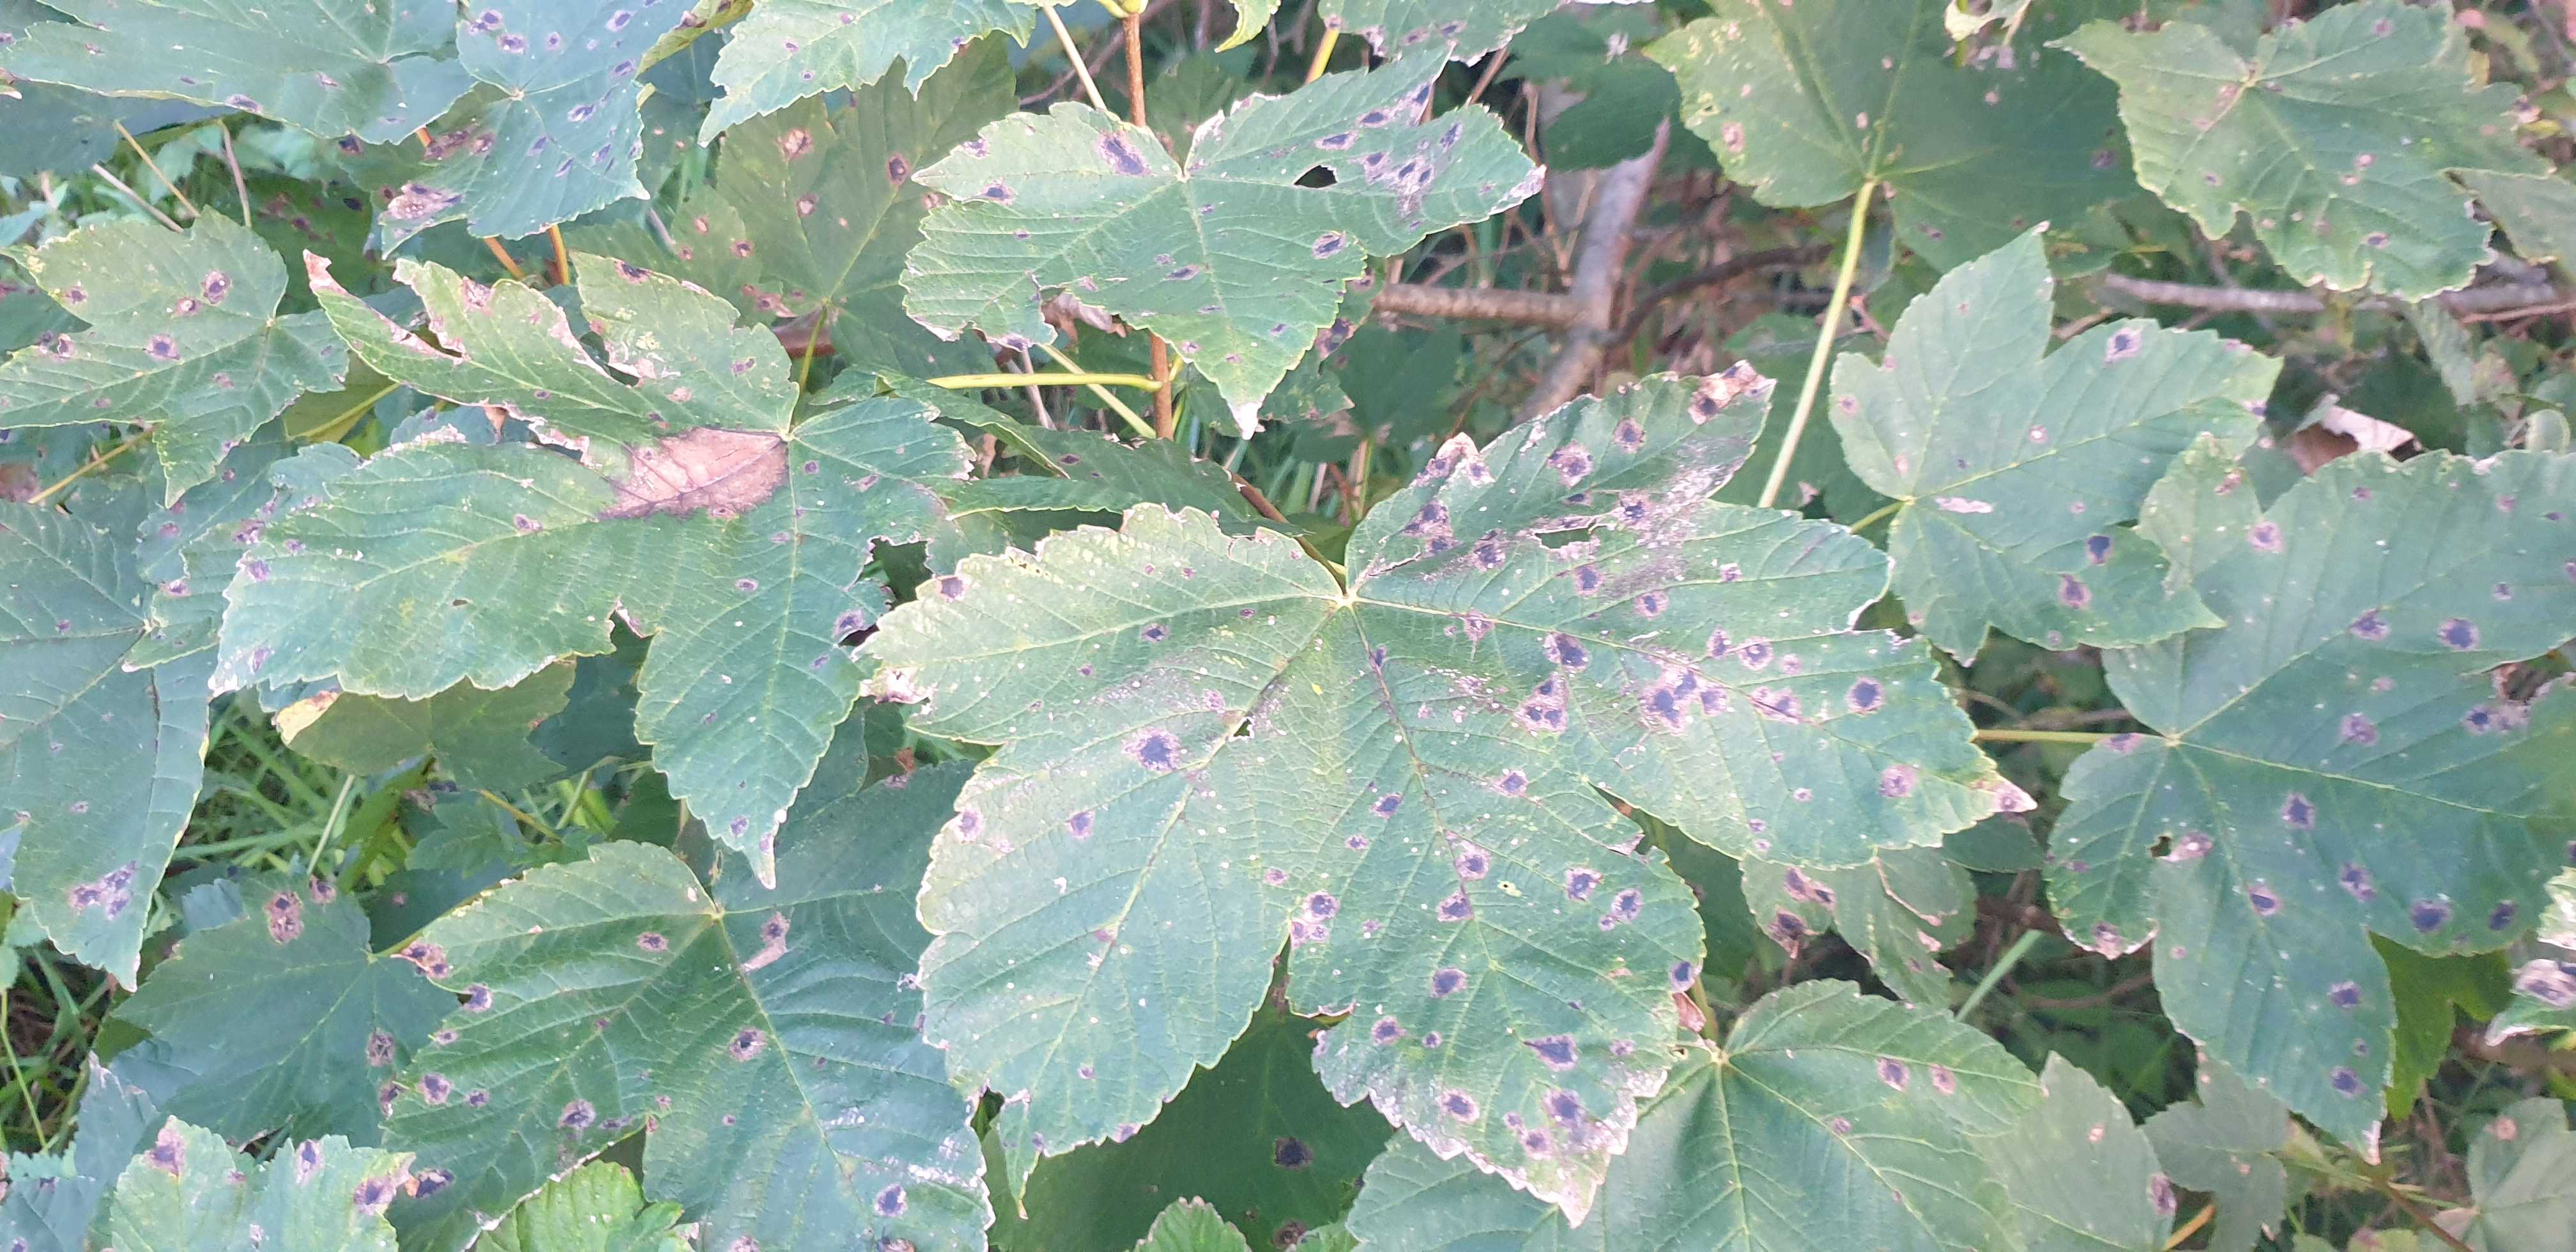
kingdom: Fungi
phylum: Ascomycota
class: Leotiomycetes
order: Rhytismatales
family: Rhytismataceae
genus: Rhytisma
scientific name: Rhytisma acerinum
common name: ahorn-rynkeplet
